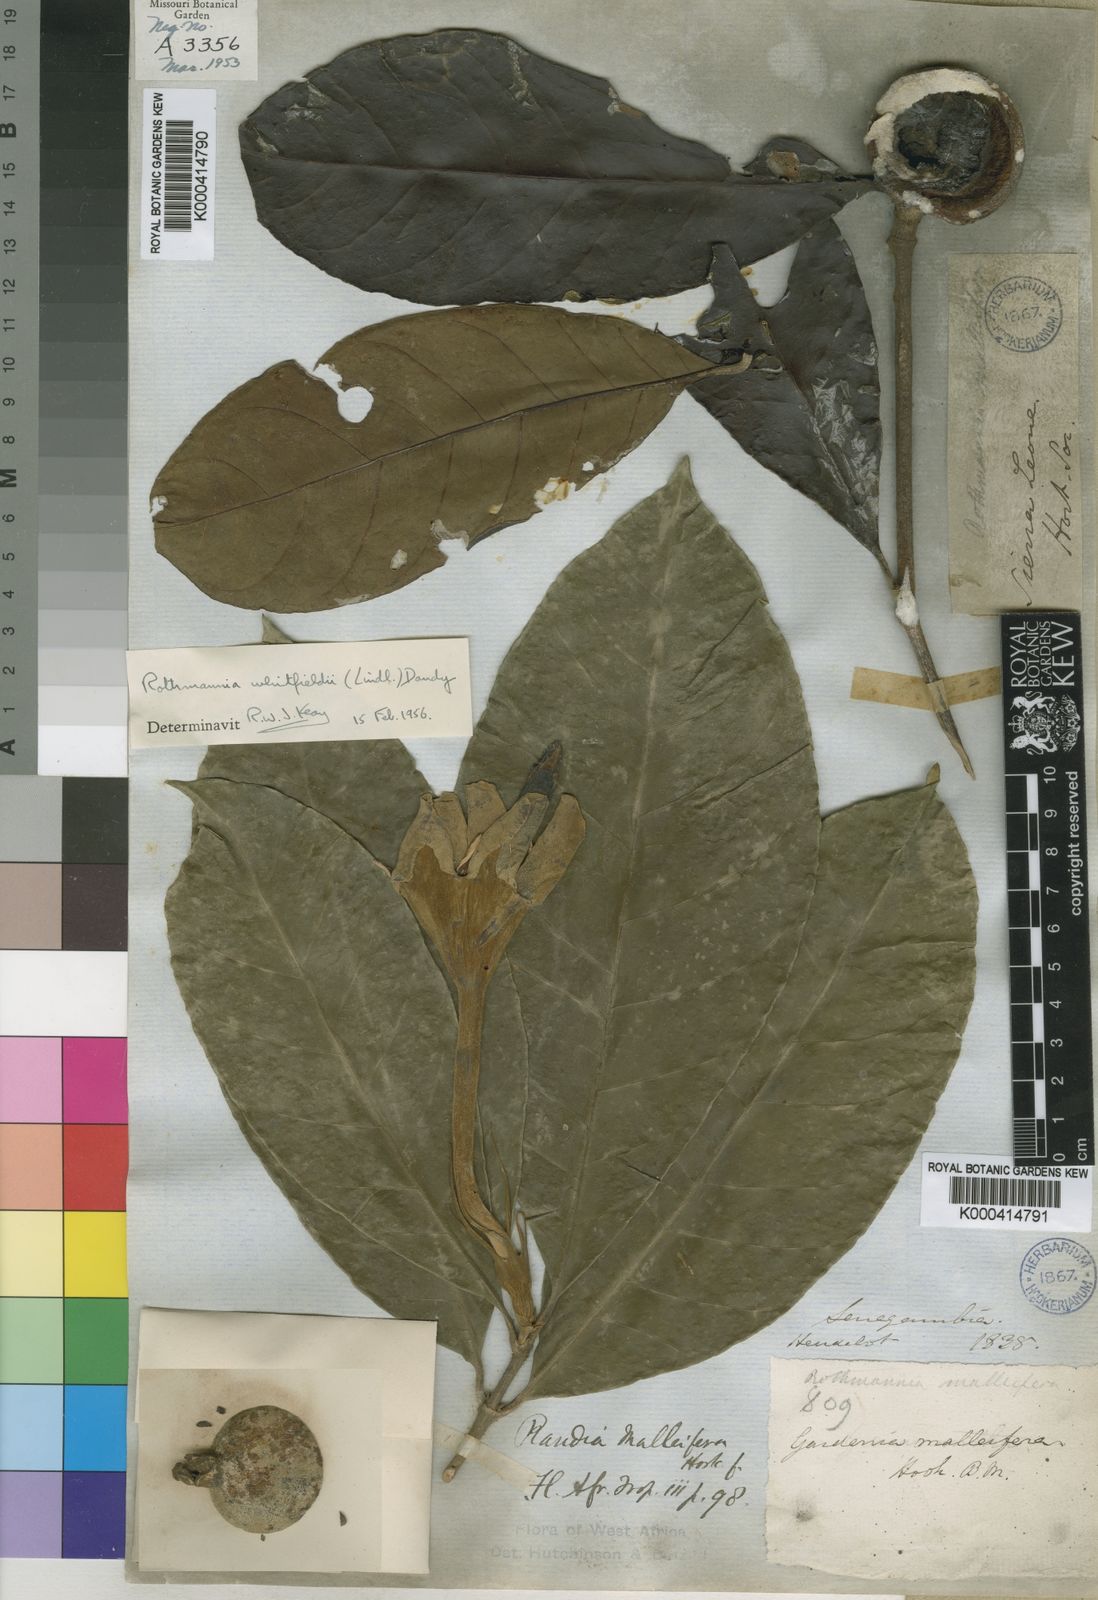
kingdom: Plantae
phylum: Tracheophyta
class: Magnoliopsida
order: Gentianales
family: Rubiaceae
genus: Rothmannia
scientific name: Rothmannia whitfieldii
